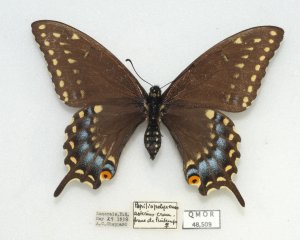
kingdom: Animalia
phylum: Arthropoda
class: Insecta
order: Lepidoptera
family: Papilionidae
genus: Papilio
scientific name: Papilio polyxenes
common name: Black Swallowtail
